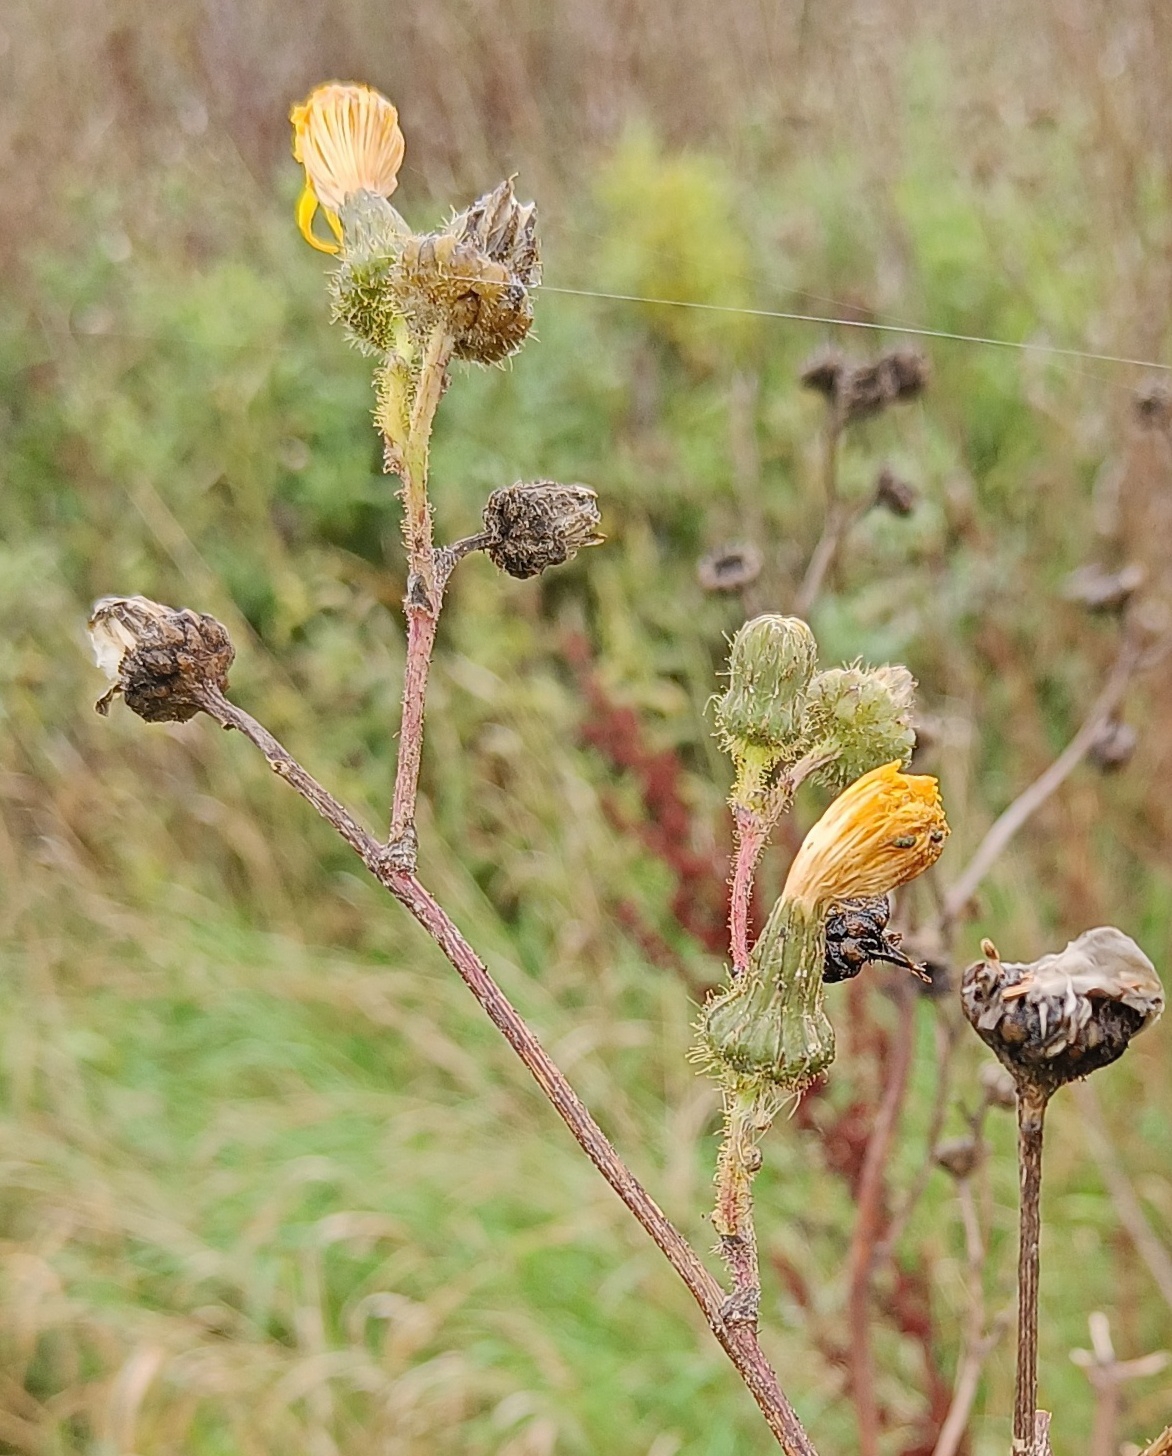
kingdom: Plantae
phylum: Tracheophyta
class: Magnoliopsida
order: Asterales
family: Asteraceae
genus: Sonchus
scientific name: Sonchus arvensis
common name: Ager-svinemælk
